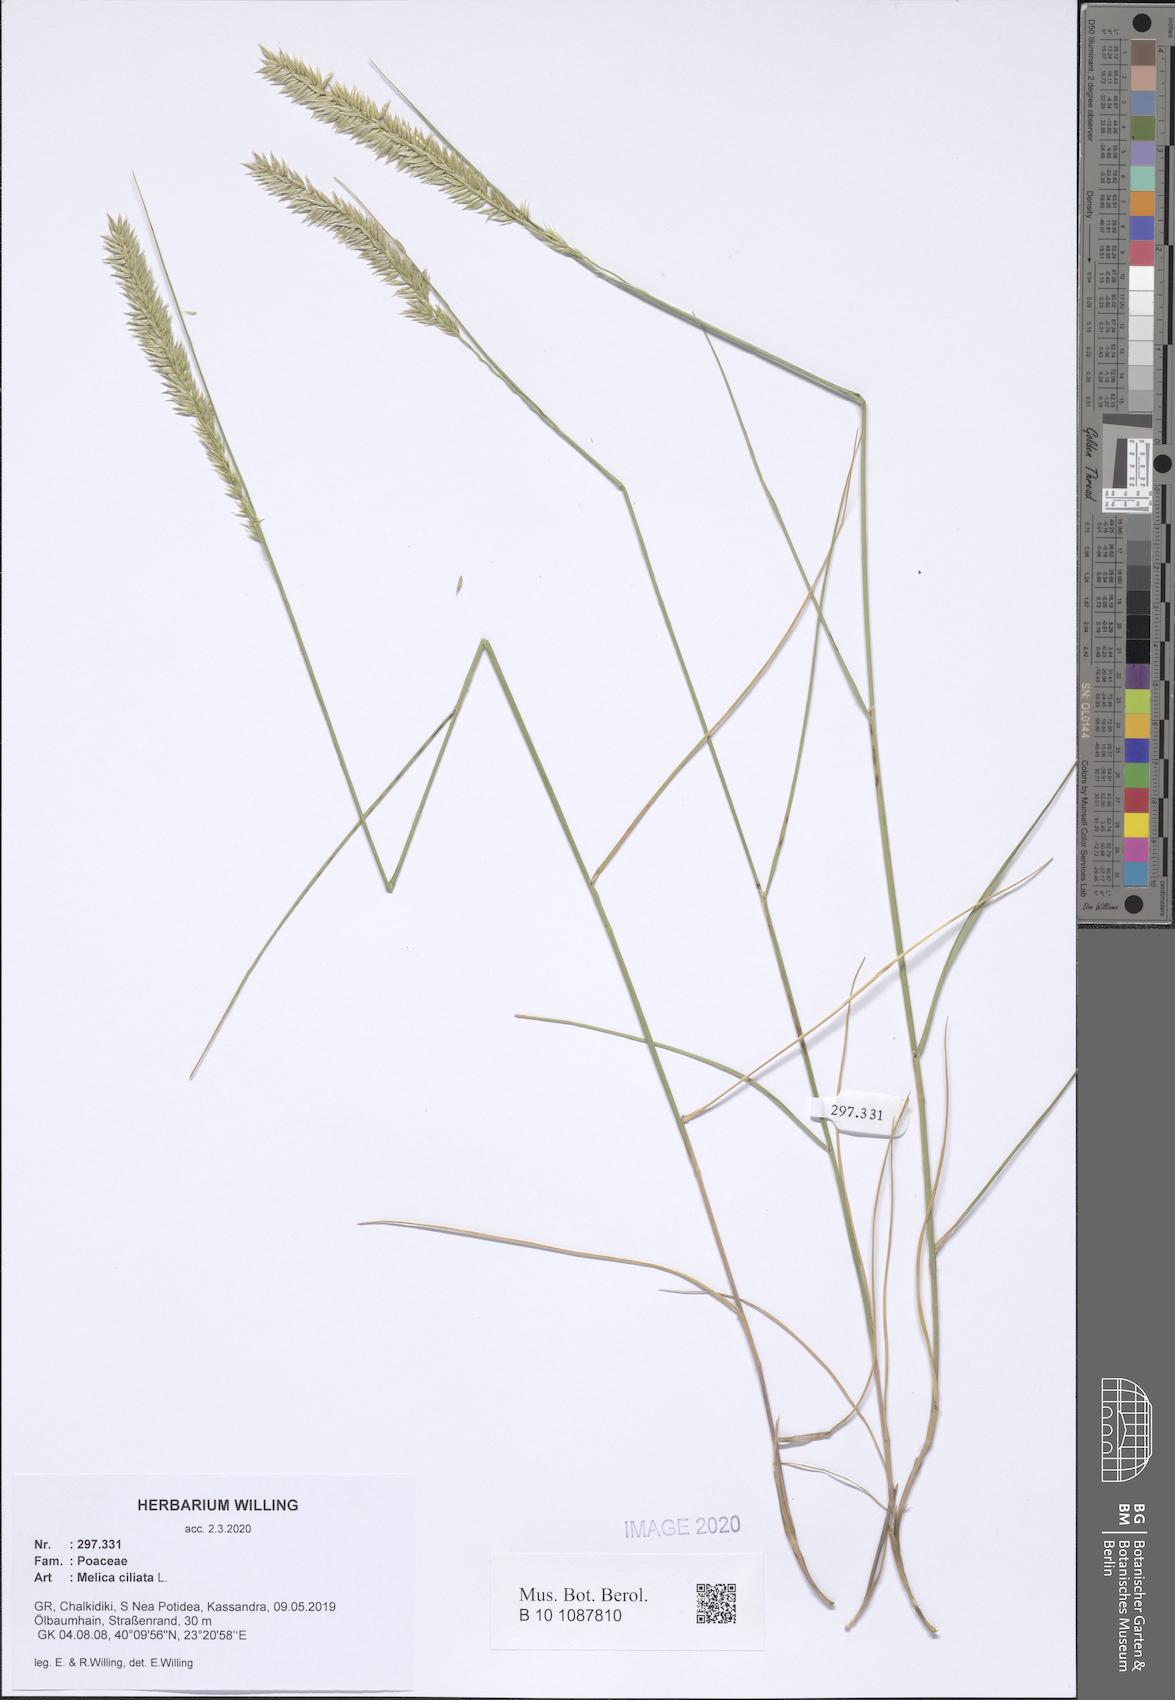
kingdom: Plantae
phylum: Tracheophyta
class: Liliopsida
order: Poales
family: Poaceae
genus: Melica
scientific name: Melica ciliata
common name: Hairy melicgrass
